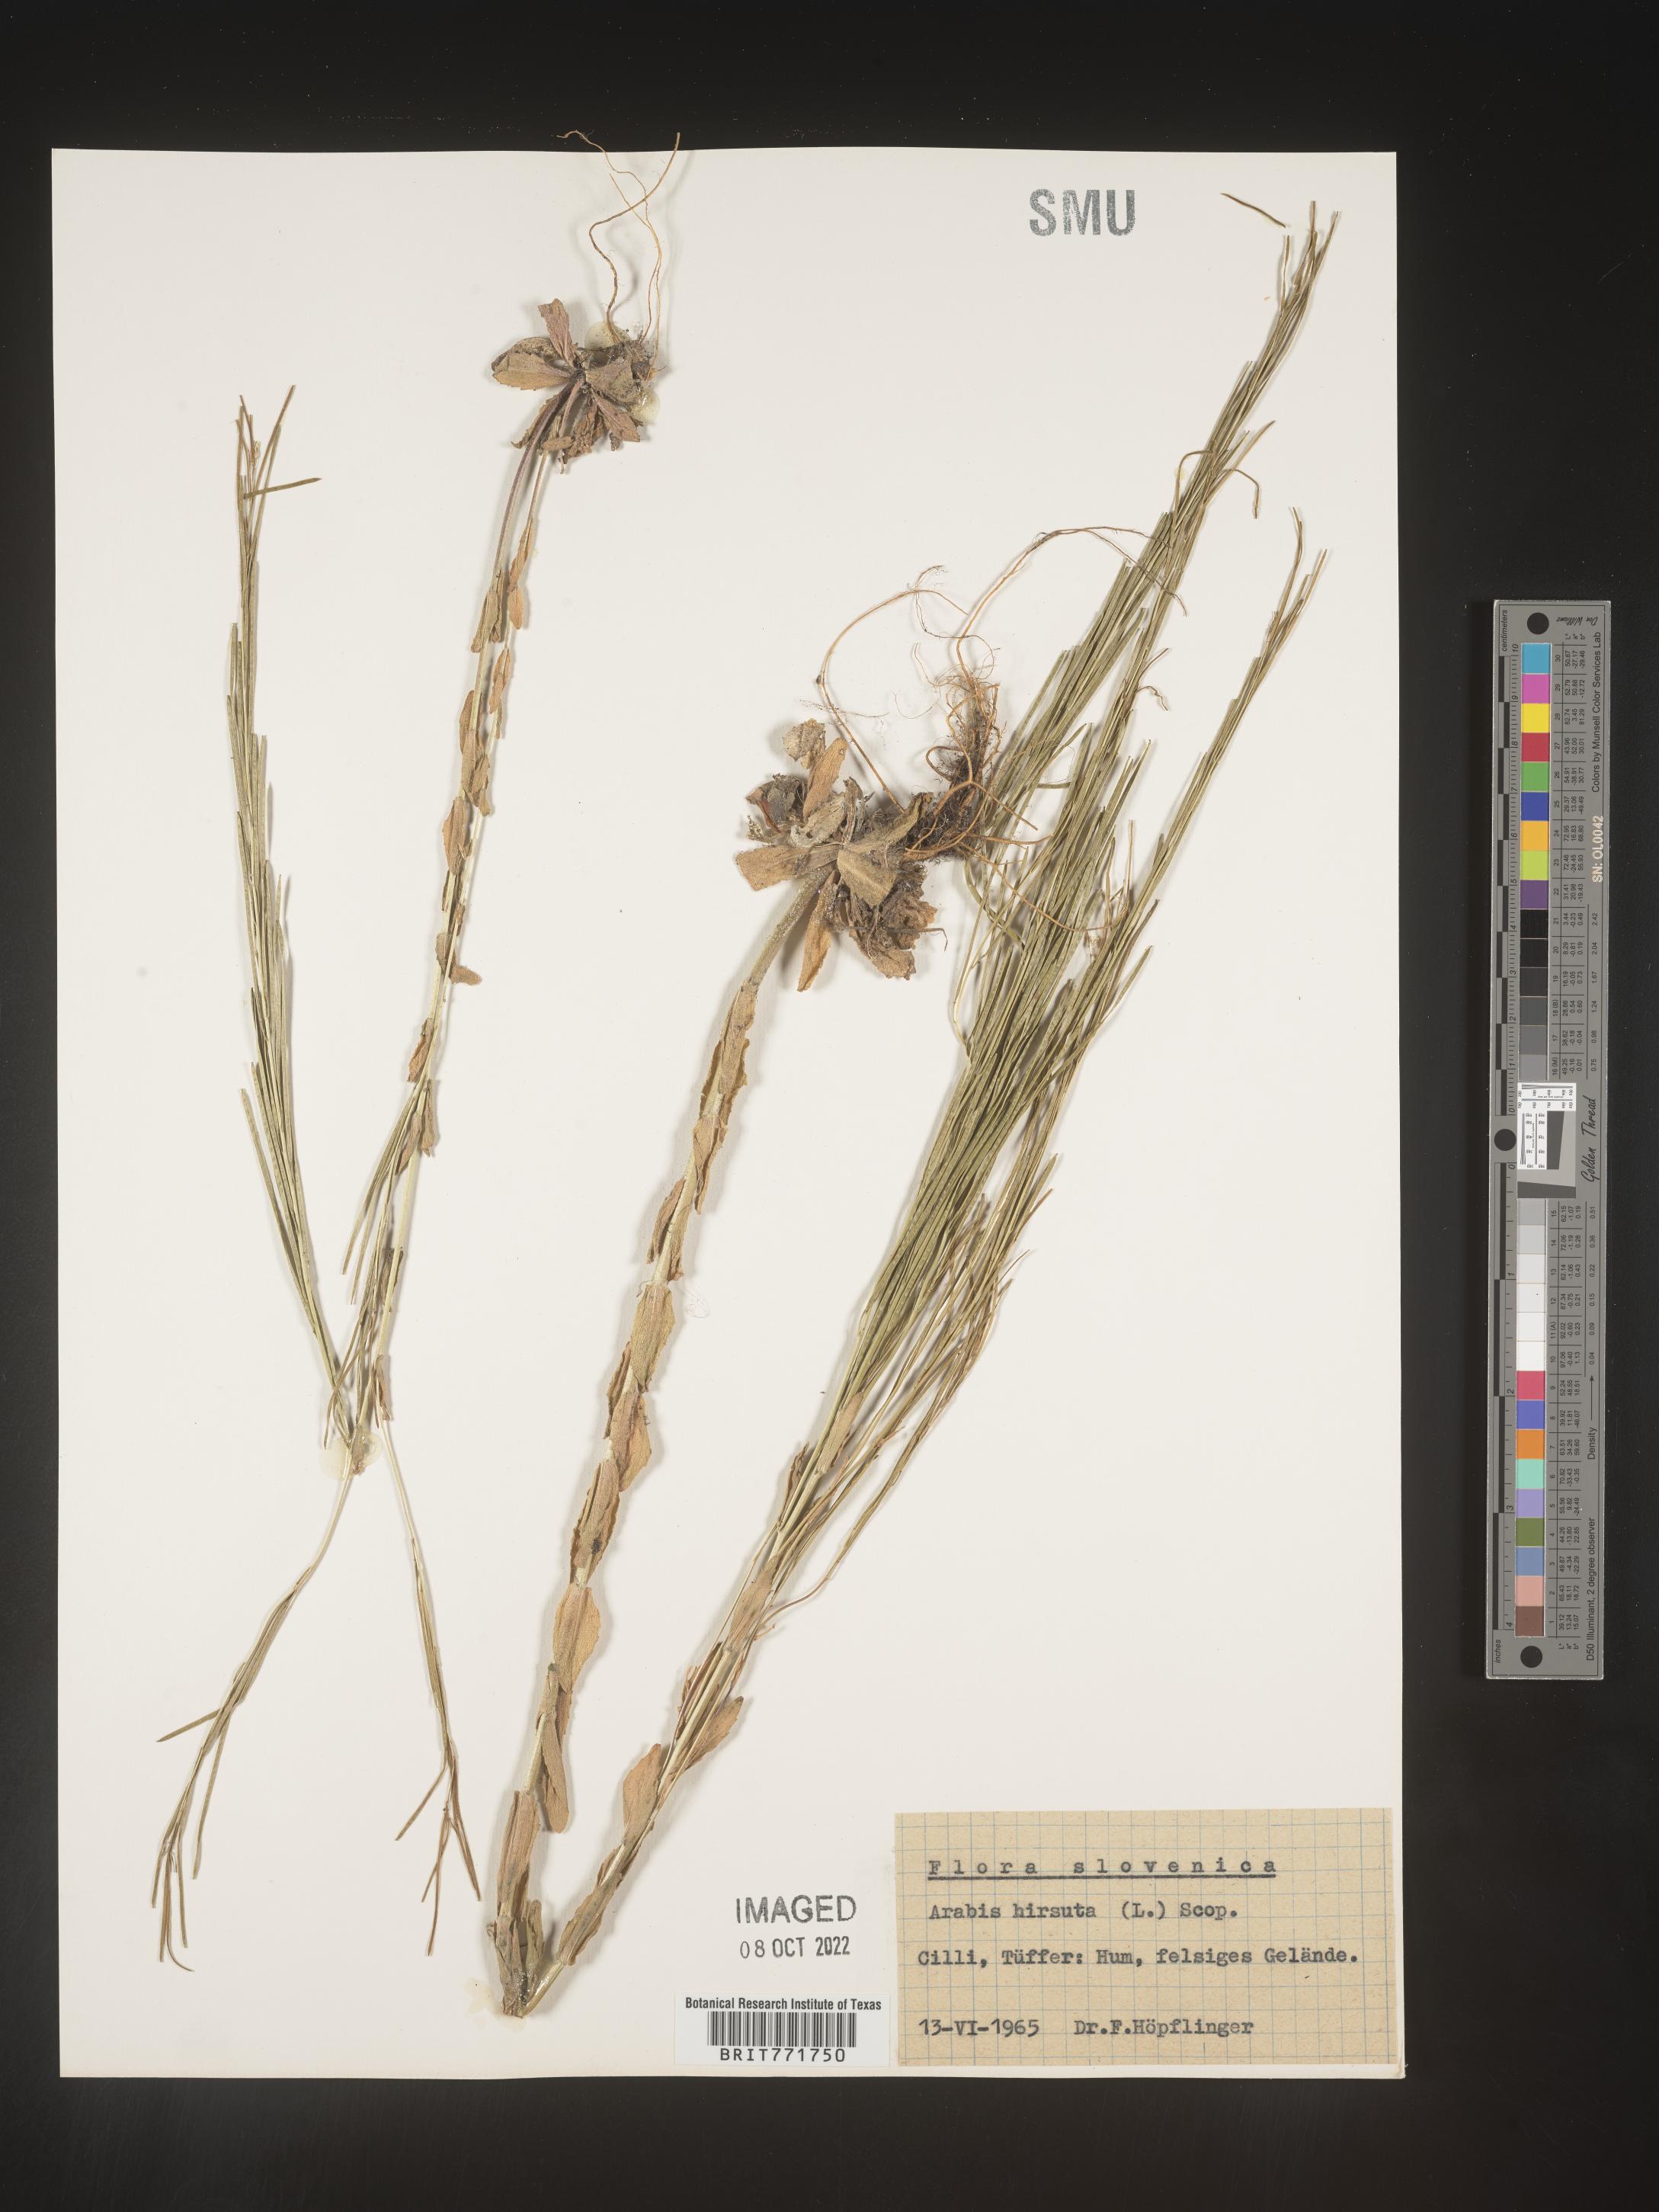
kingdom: Plantae
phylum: Tracheophyta
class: Magnoliopsida
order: Brassicales
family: Brassicaceae
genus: Arabis
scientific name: Arabis
